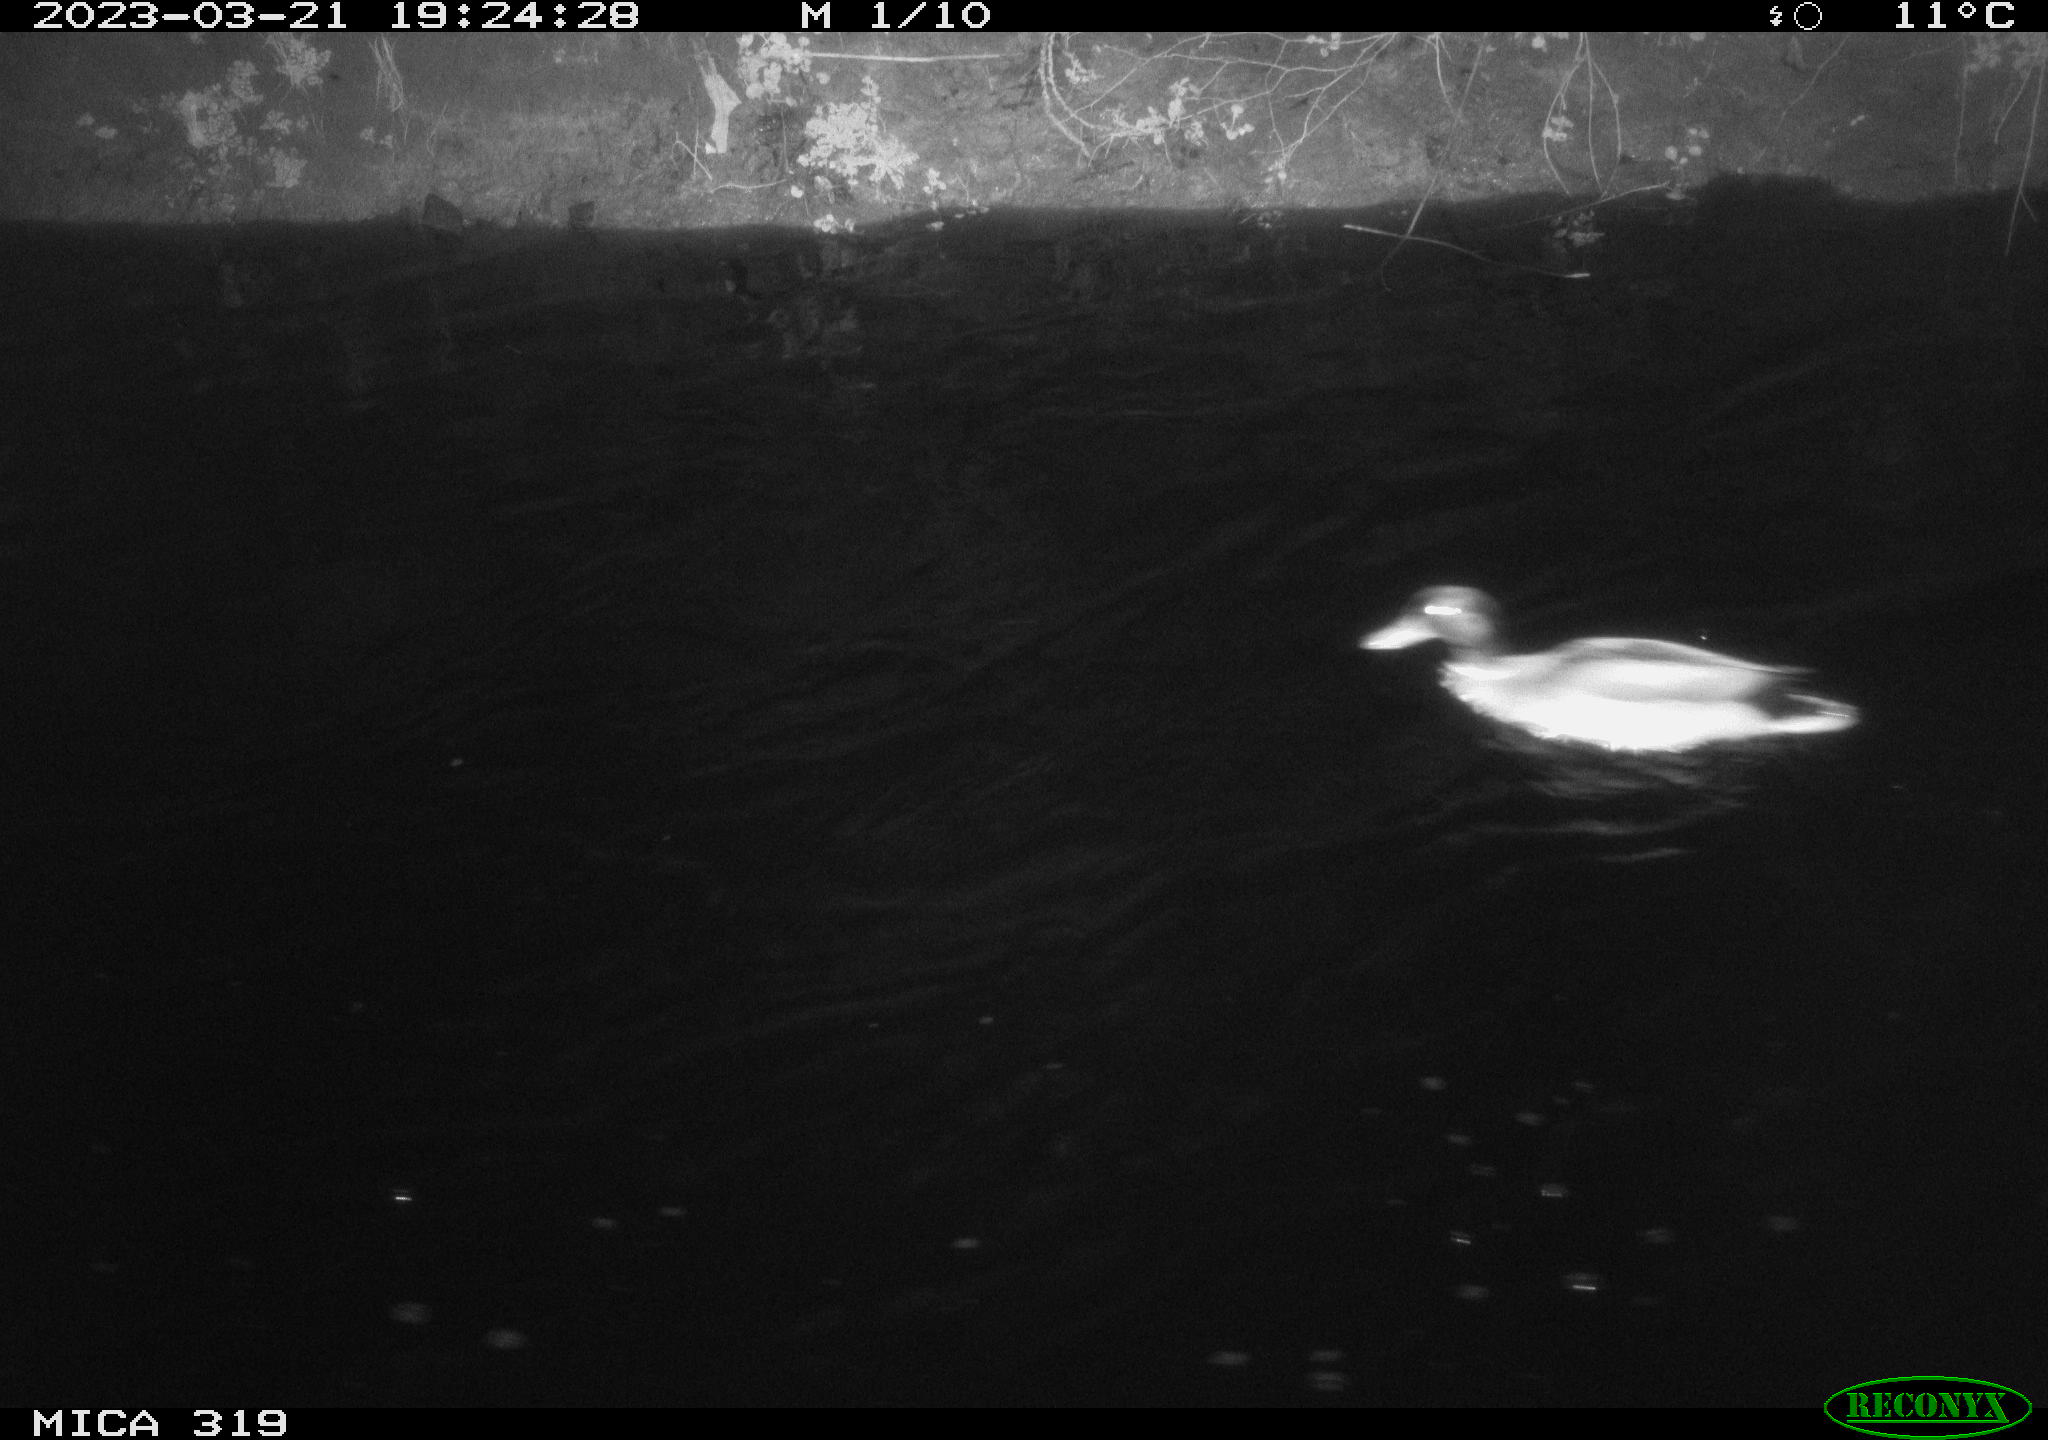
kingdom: Animalia
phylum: Chordata
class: Aves
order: Anseriformes
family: Anatidae
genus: Anas
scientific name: Anas
